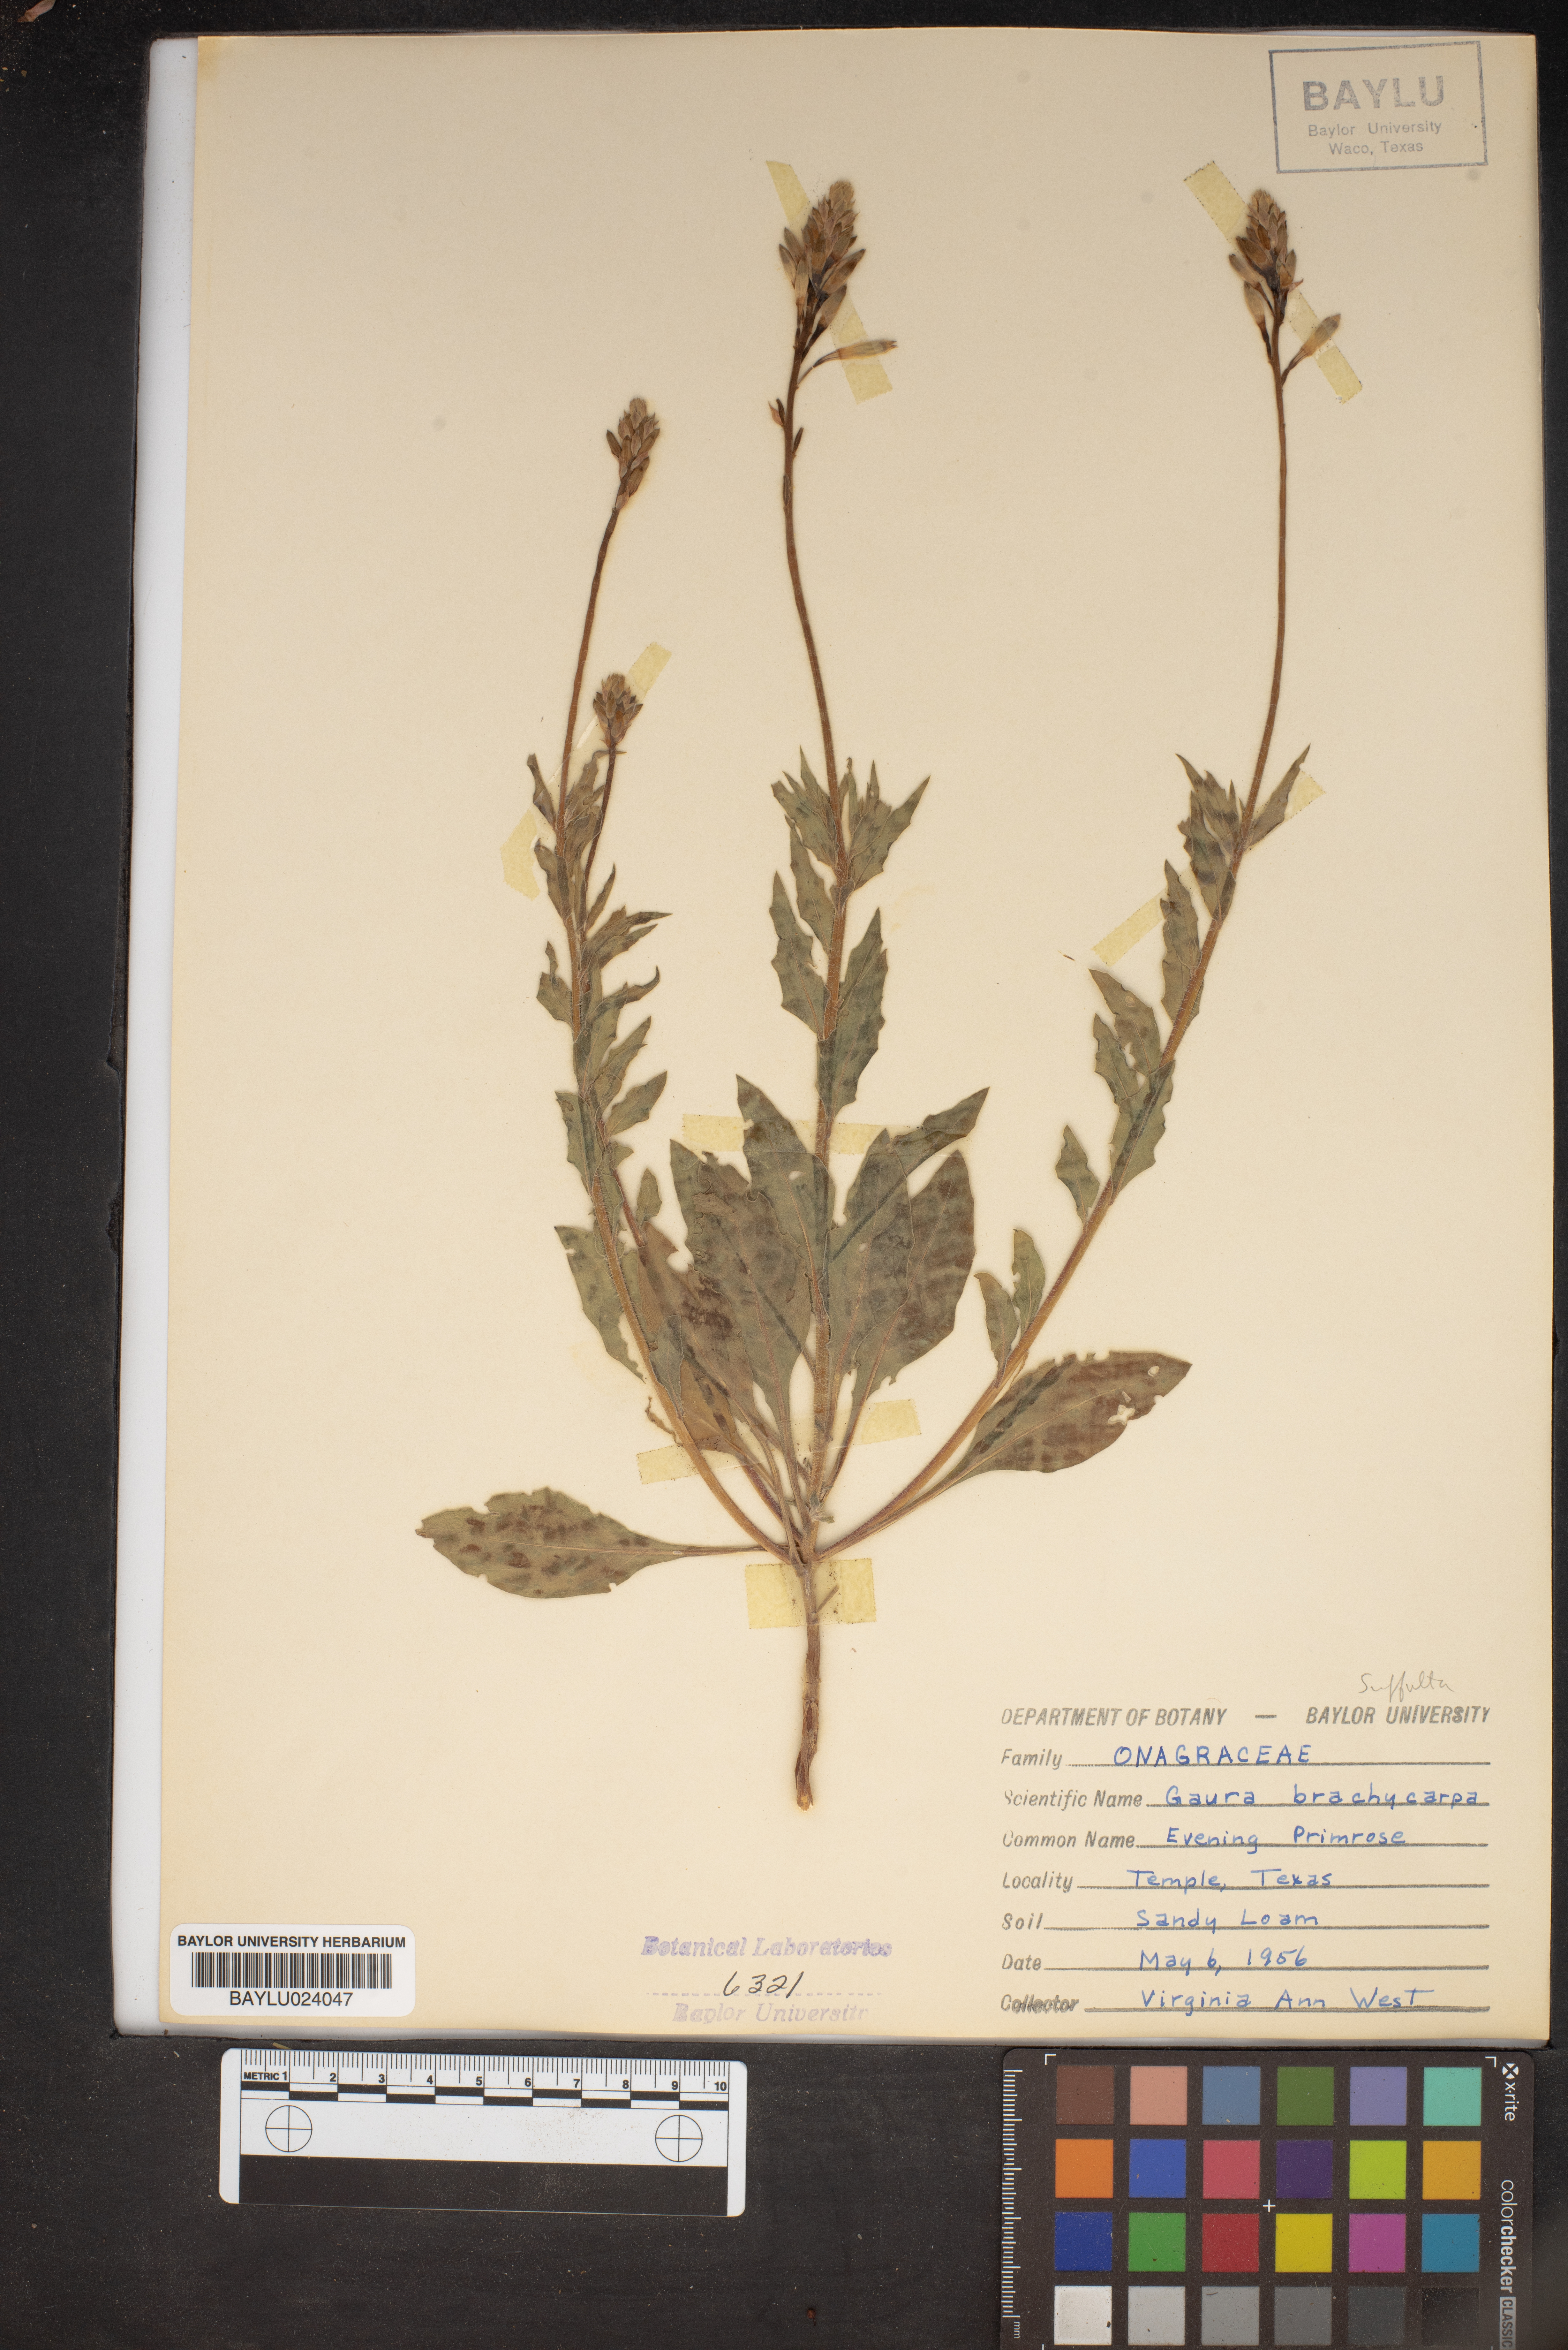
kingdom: Plantae
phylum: Tracheophyta
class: Magnoliopsida
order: Sapindales
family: Meliaceae
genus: Guarea
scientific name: Guarea
